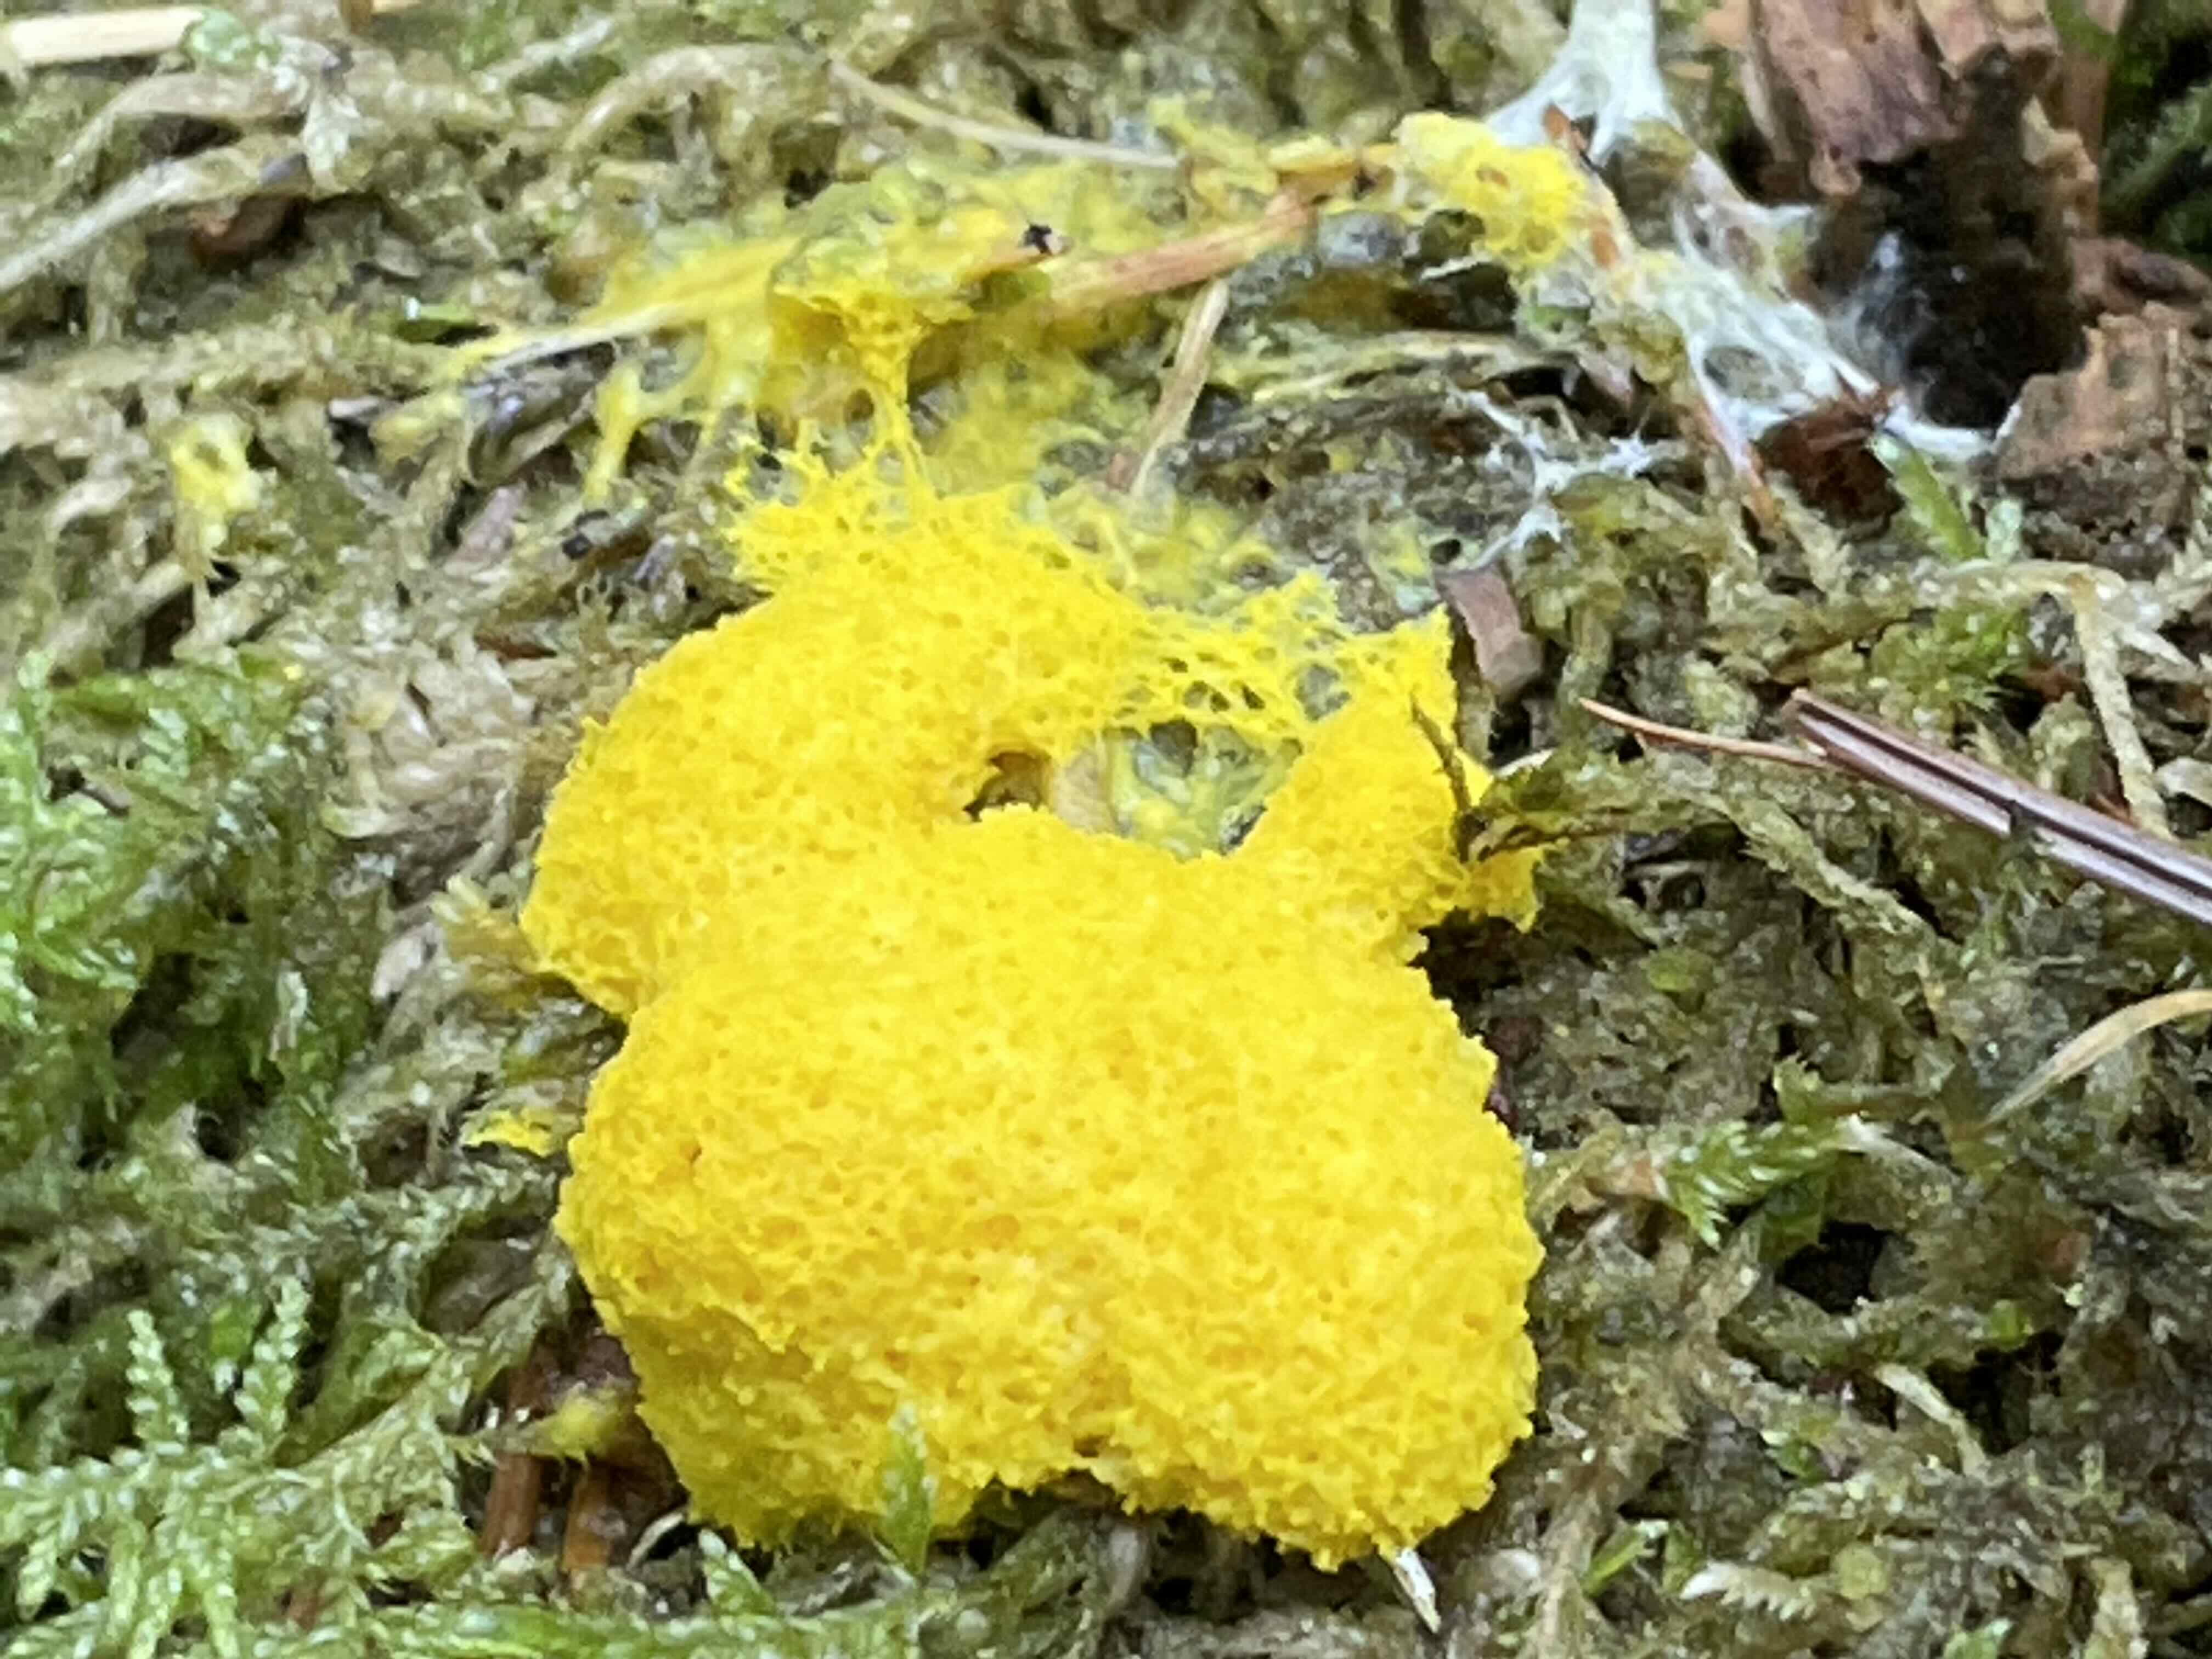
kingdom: Protozoa
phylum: Mycetozoa
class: Myxomycetes
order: Physarales
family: Physaraceae
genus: Fuligo
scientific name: Fuligo septica
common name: gul troldsmør
